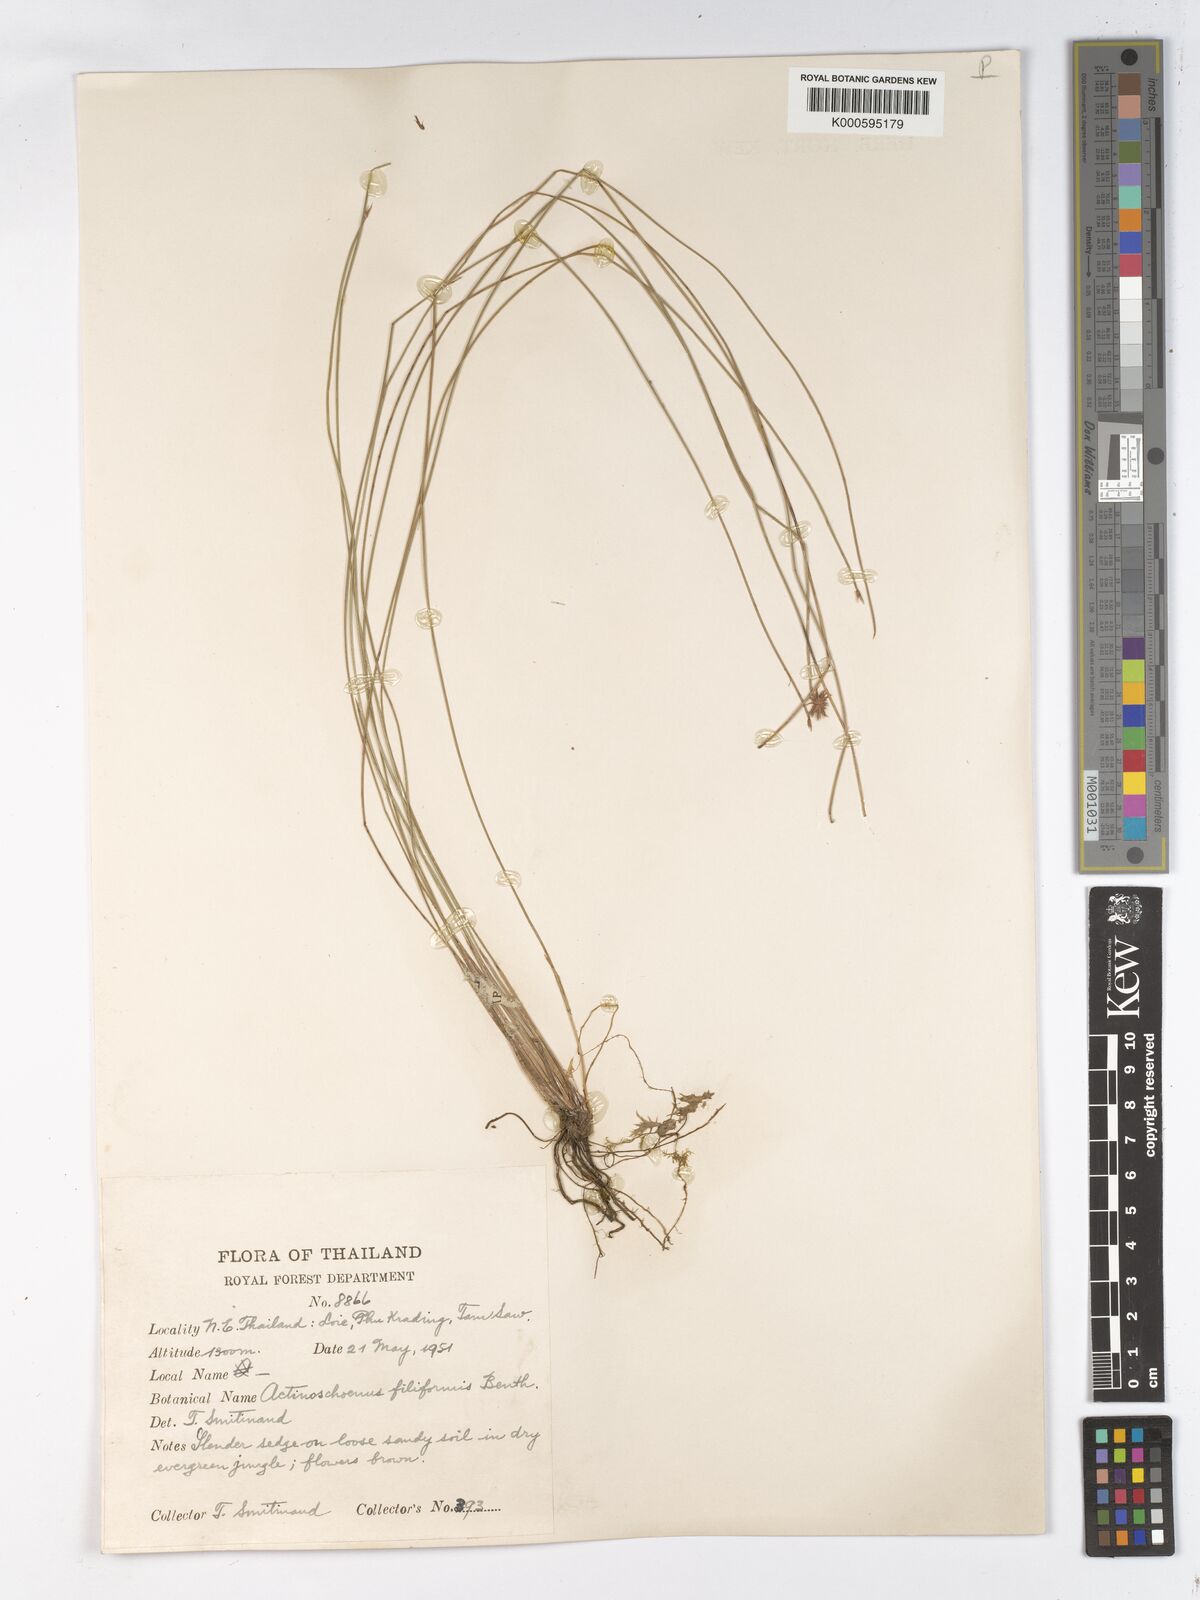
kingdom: Plantae
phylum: Tracheophyta
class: Liliopsida
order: Poales
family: Cyperaceae
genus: Actinoschoenus
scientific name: Actinoschoenus aphyllus
